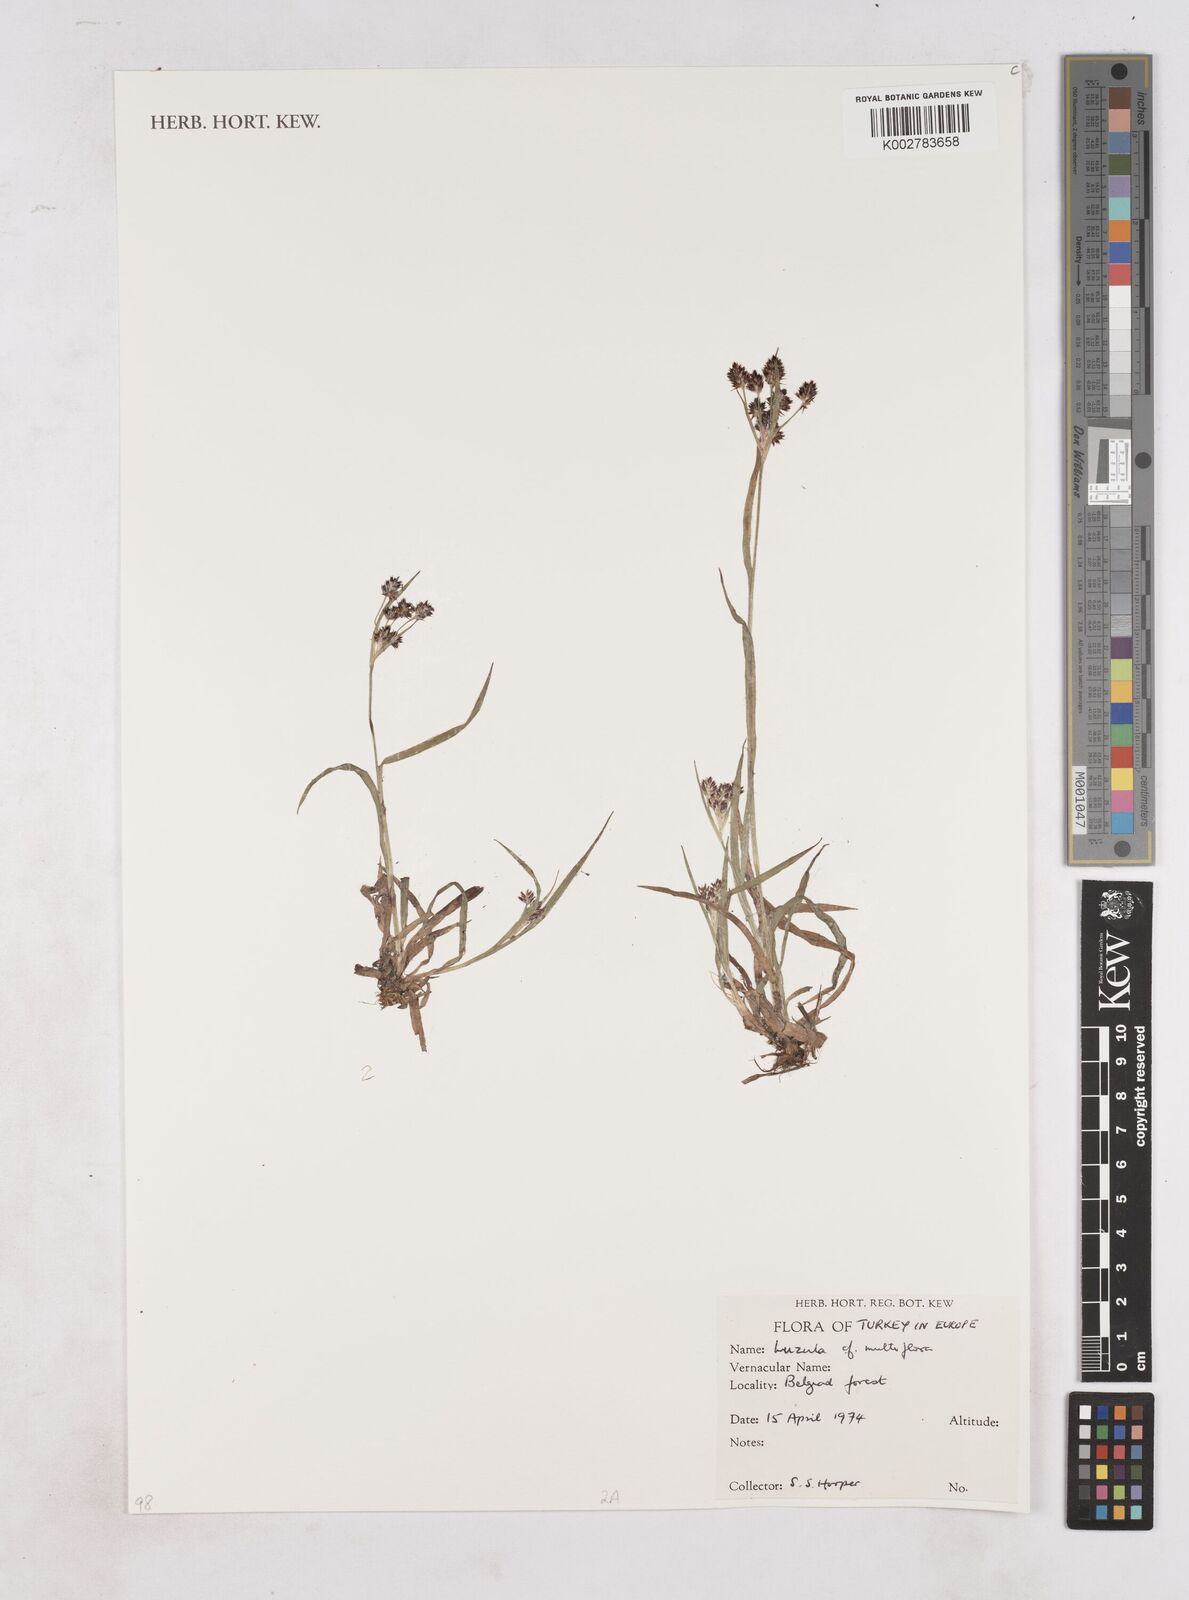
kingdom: Plantae
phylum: Tracheophyta
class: Liliopsida
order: Poales
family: Juncaceae
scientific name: Juncaceae
